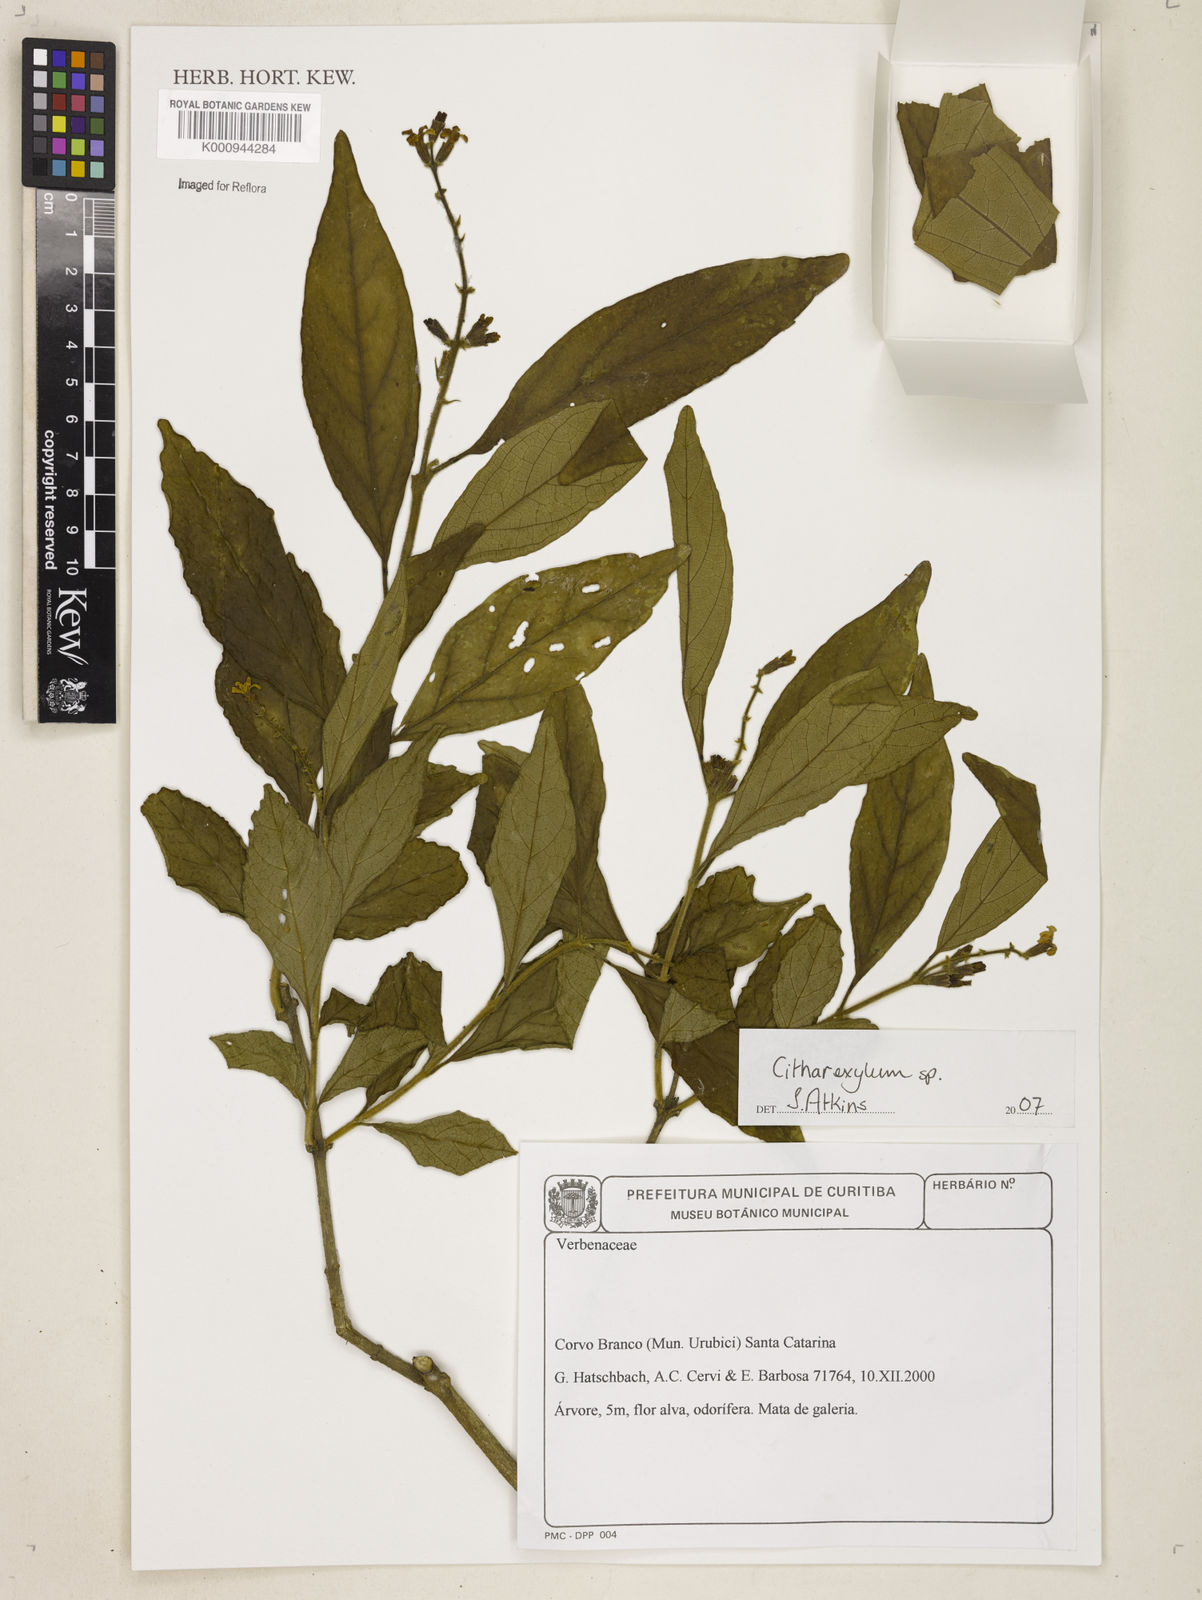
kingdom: Plantae
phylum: Tracheophyta
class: Magnoliopsida
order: Lamiales
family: Verbenaceae
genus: Citharexylum
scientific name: Citharexylum
